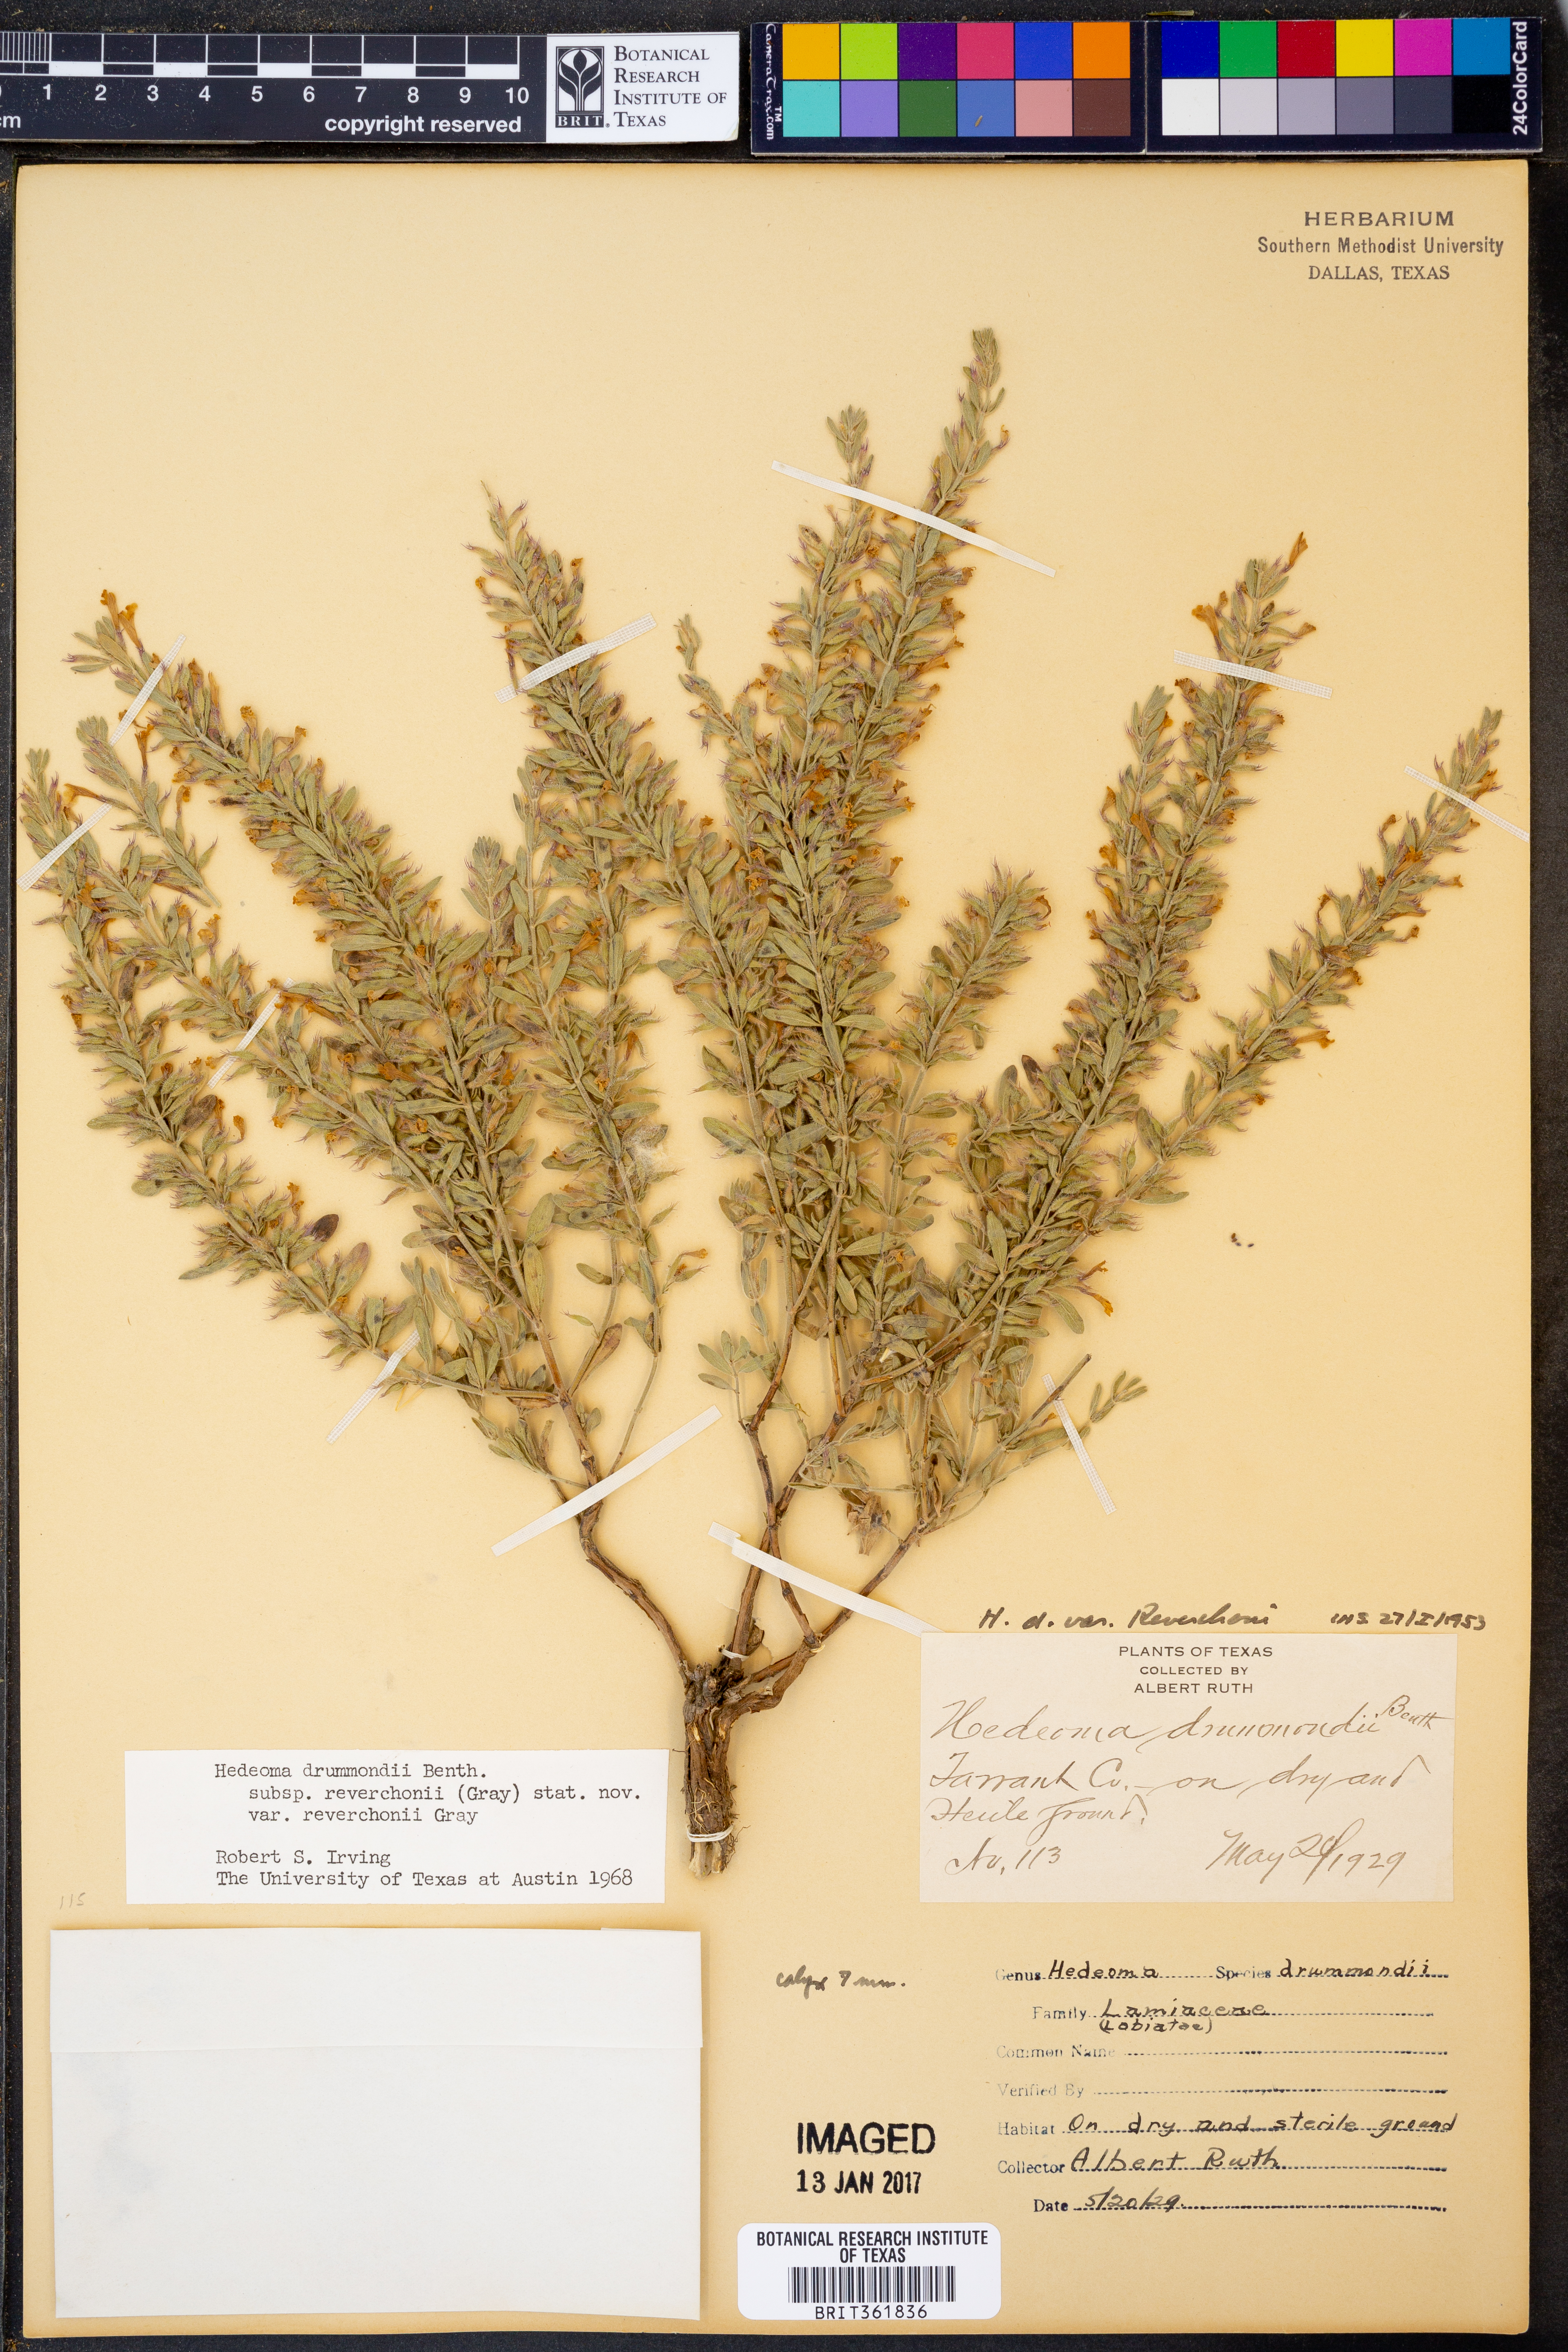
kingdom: Plantae
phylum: Tracheophyta
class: Magnoliopsida
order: Lamiales
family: Lamiaceae
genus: Hedeoma
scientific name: Hedeoma reverchonii
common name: Reverchon's false penny-royal
